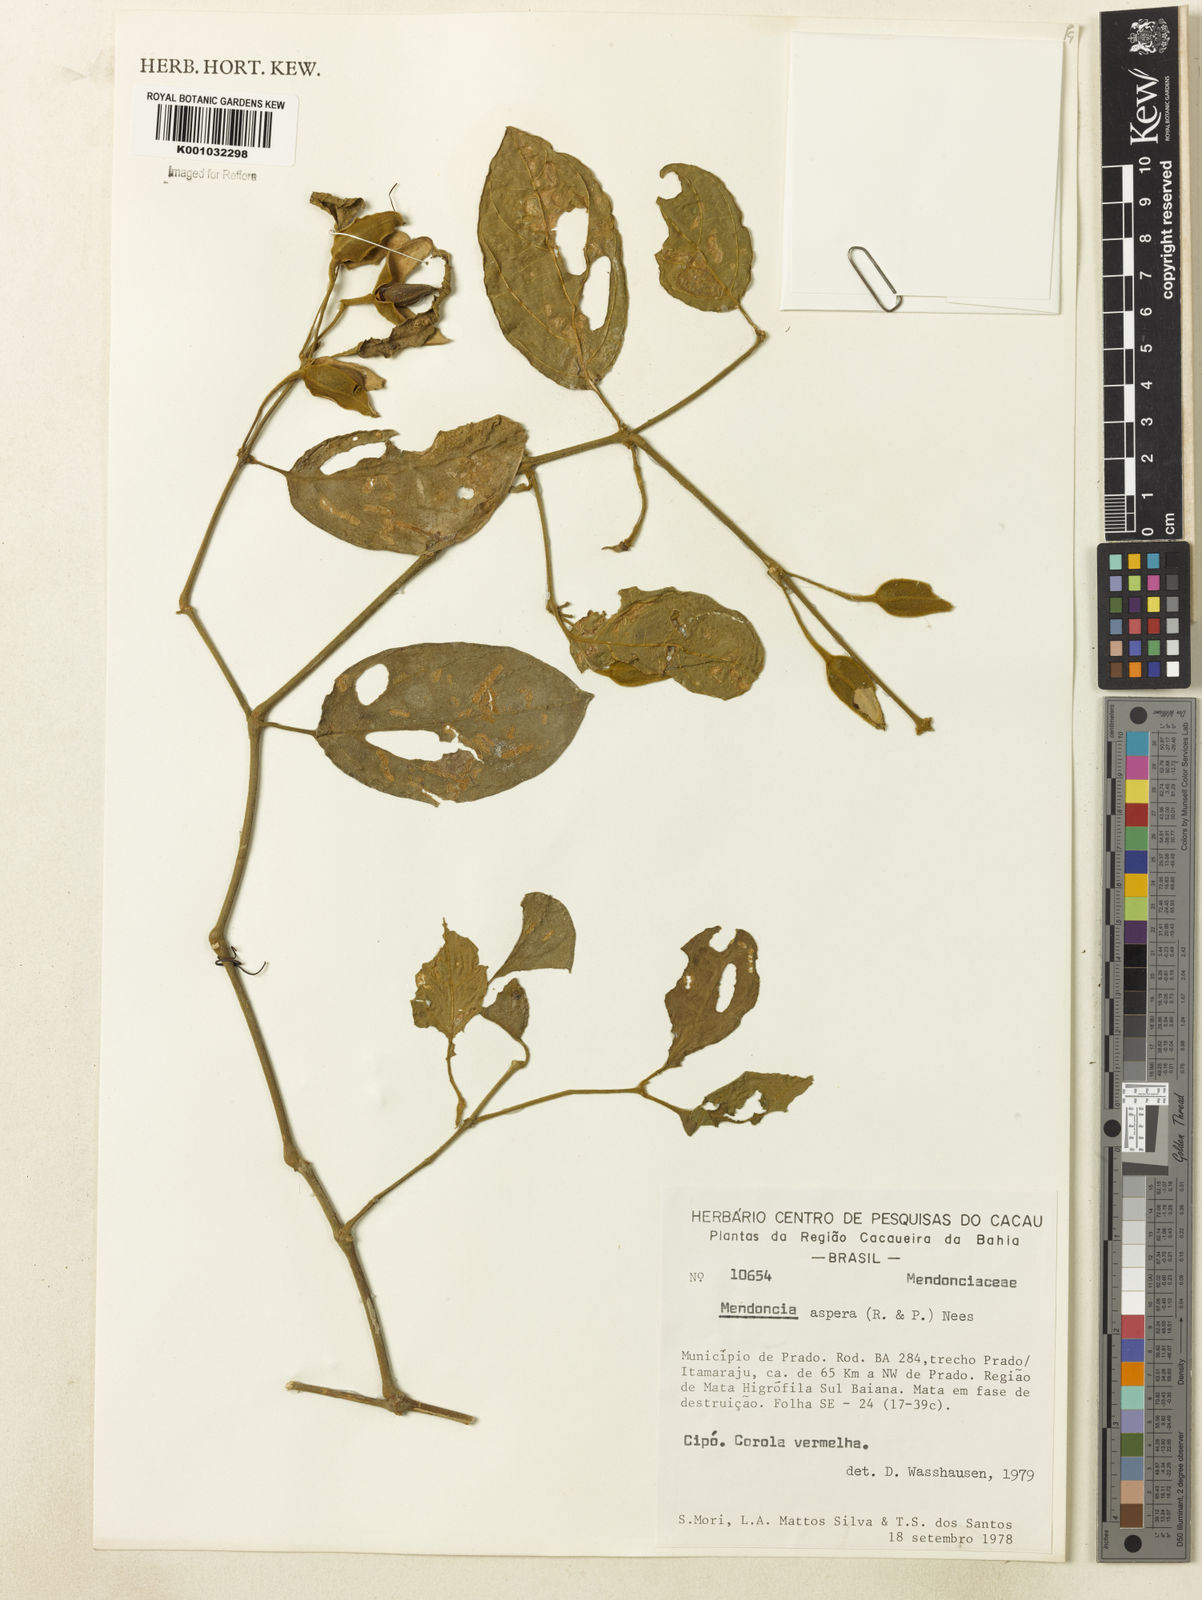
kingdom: Plantae
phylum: Tracheophyta
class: Magnoliopsida
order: Lamiales
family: Acanthaceae
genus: Mendoncia
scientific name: Mendoncia
